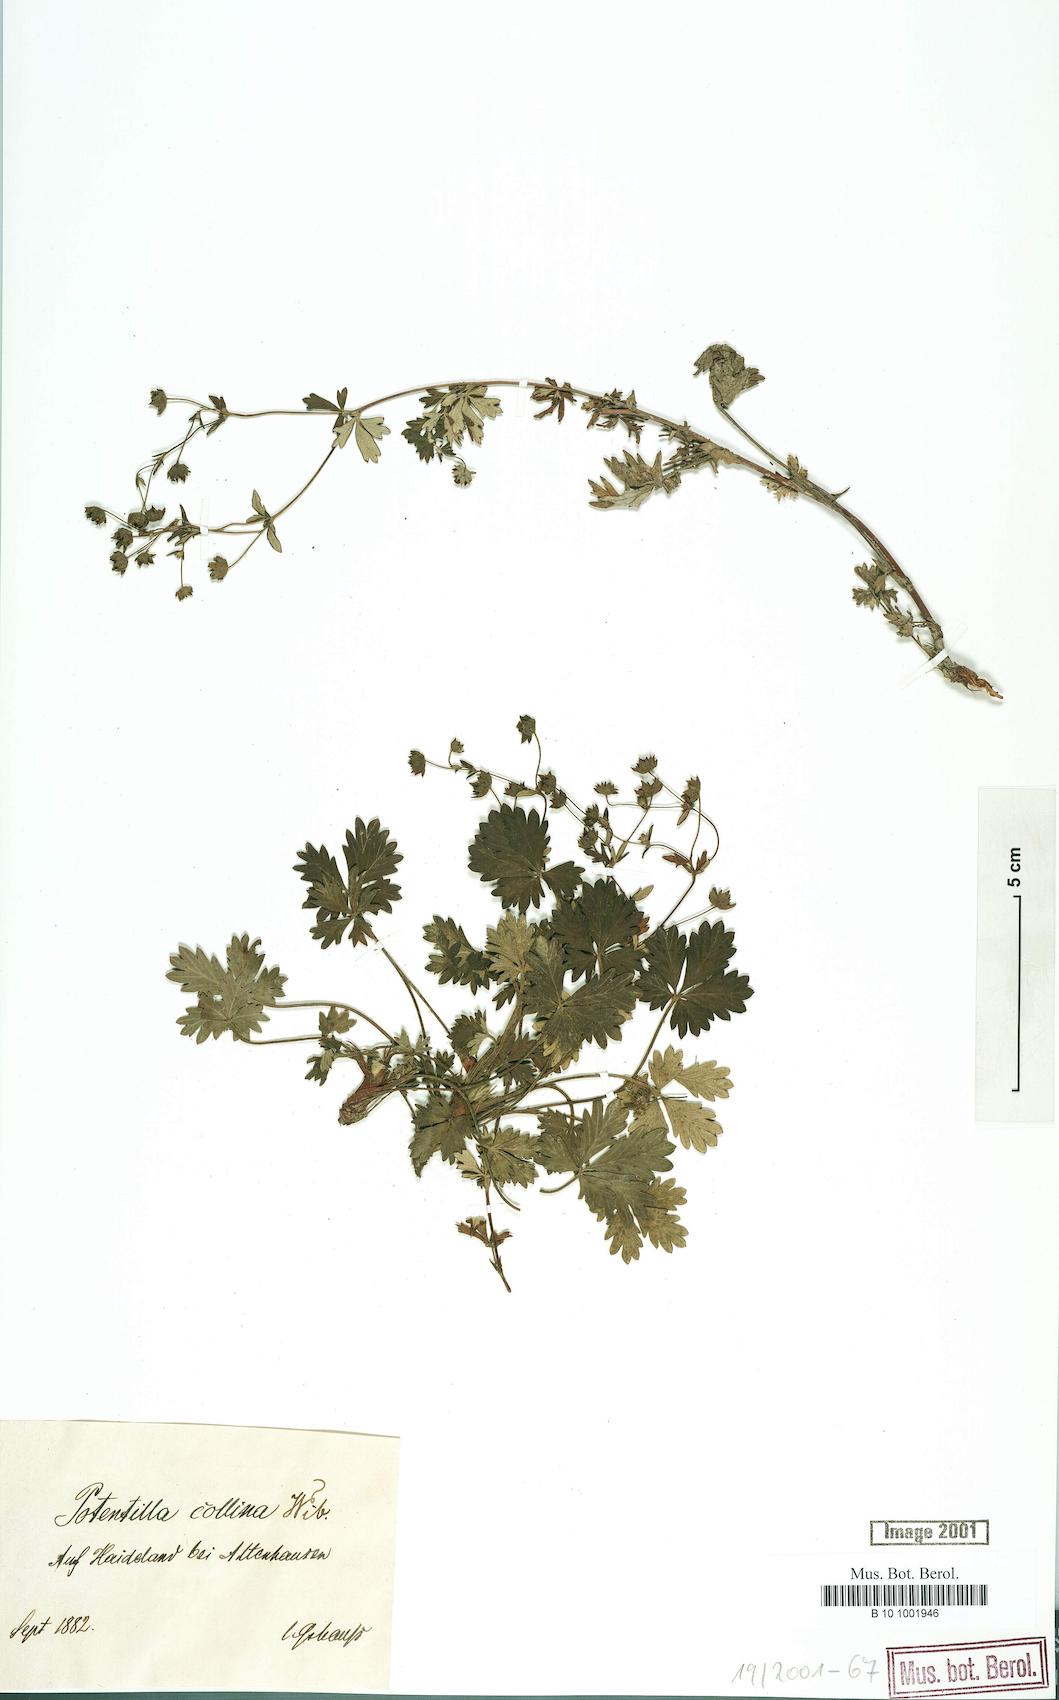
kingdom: Plantae
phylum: Tracheophyta
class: Magnoliopsida
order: Rosales
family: Rosaceae
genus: Potentilla
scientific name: Potentilla collina
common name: Palmleaf cinquefoil
